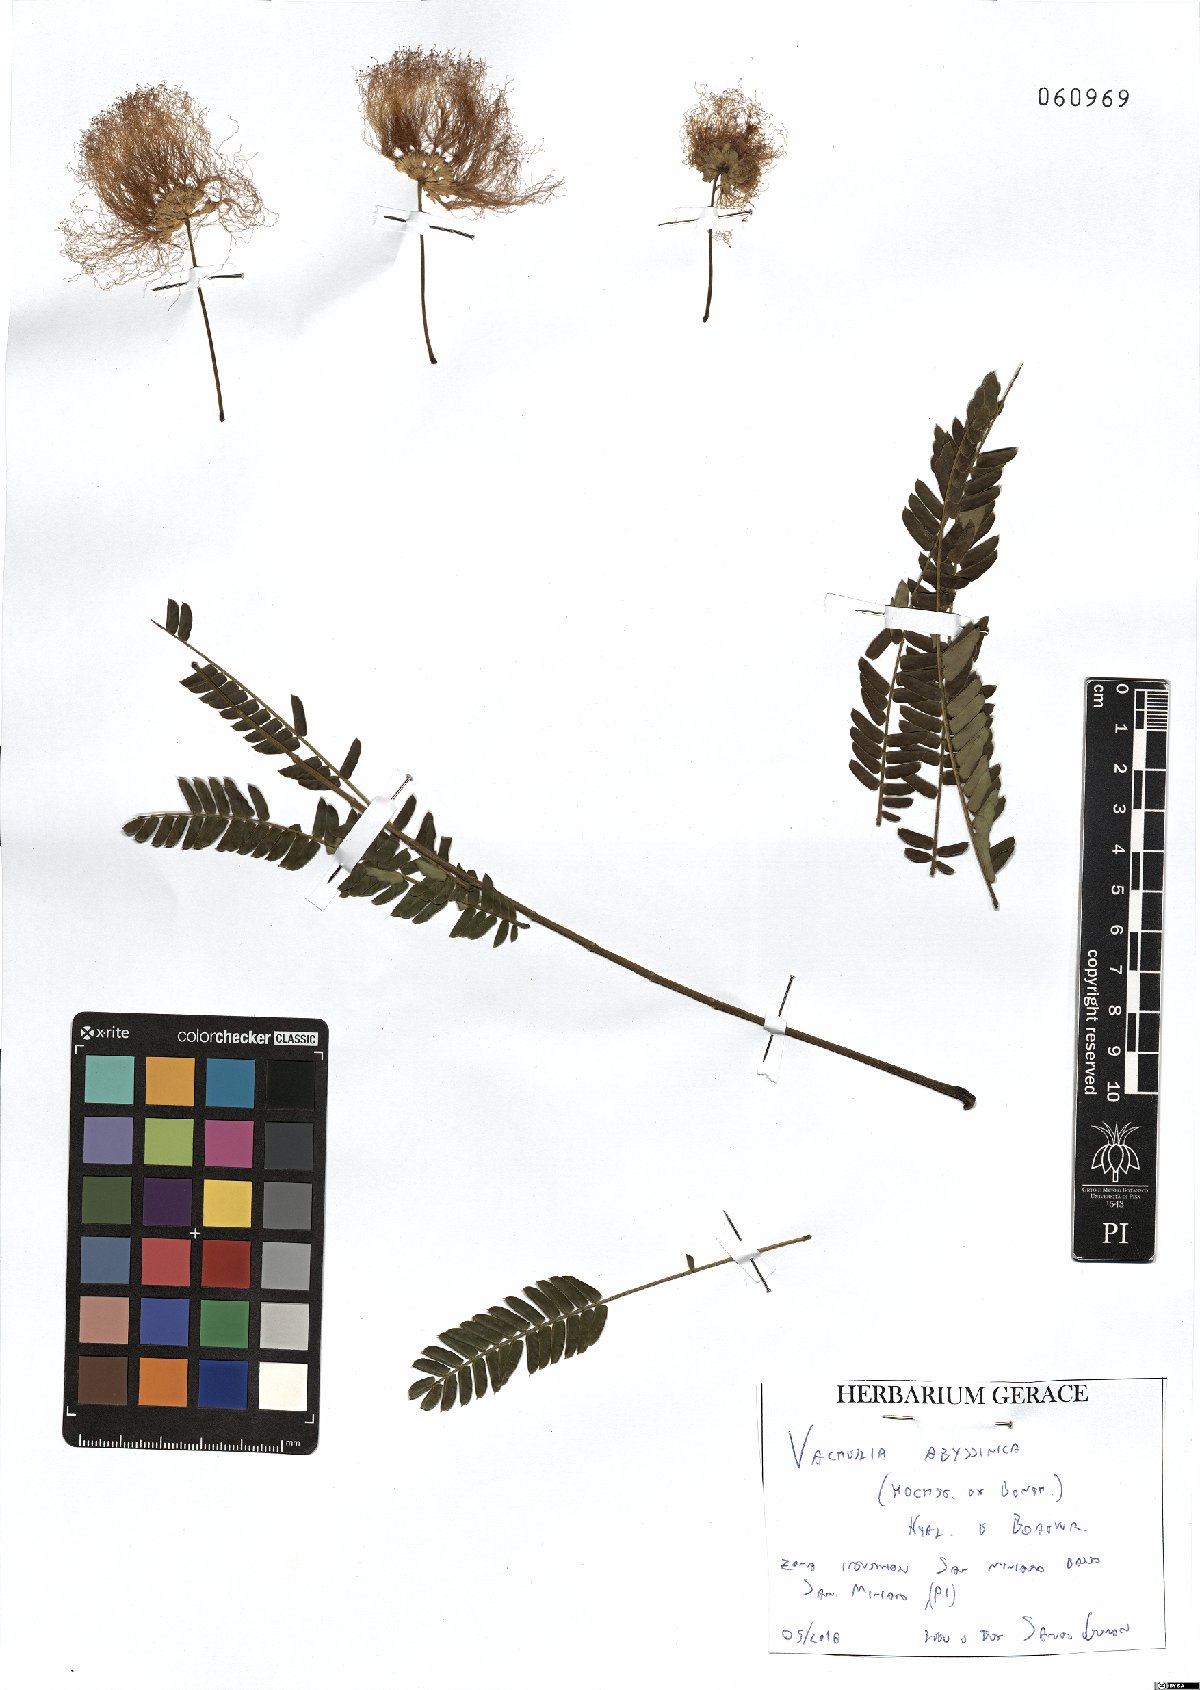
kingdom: Plantae
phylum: Tracheophyta
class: Magnoliopsida
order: Fabales
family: Fabaceae
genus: Albizia
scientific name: Albizia julibrissin
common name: Silktree
